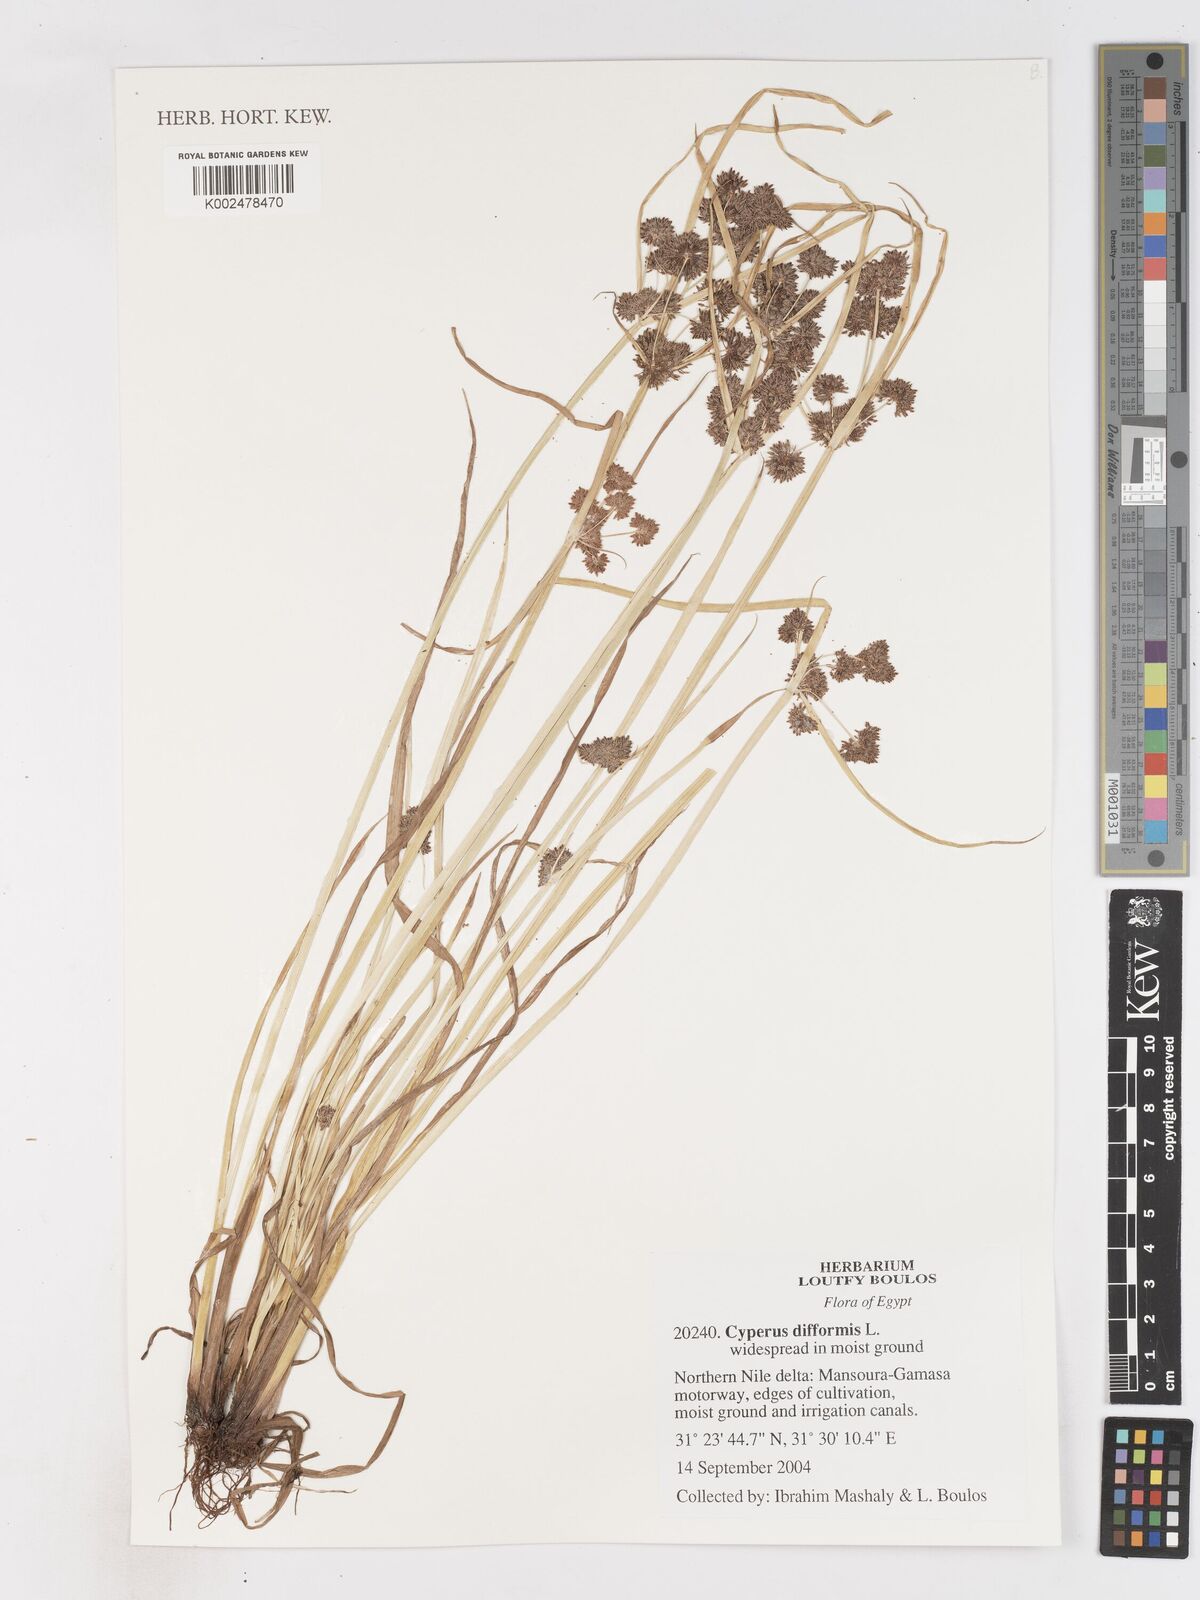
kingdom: Plantae
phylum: Tracheophyta
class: Liliopsida
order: Poales
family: Cyperaceae
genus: Cyperus
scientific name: Cyperus difformis
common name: Variable flatsedge
